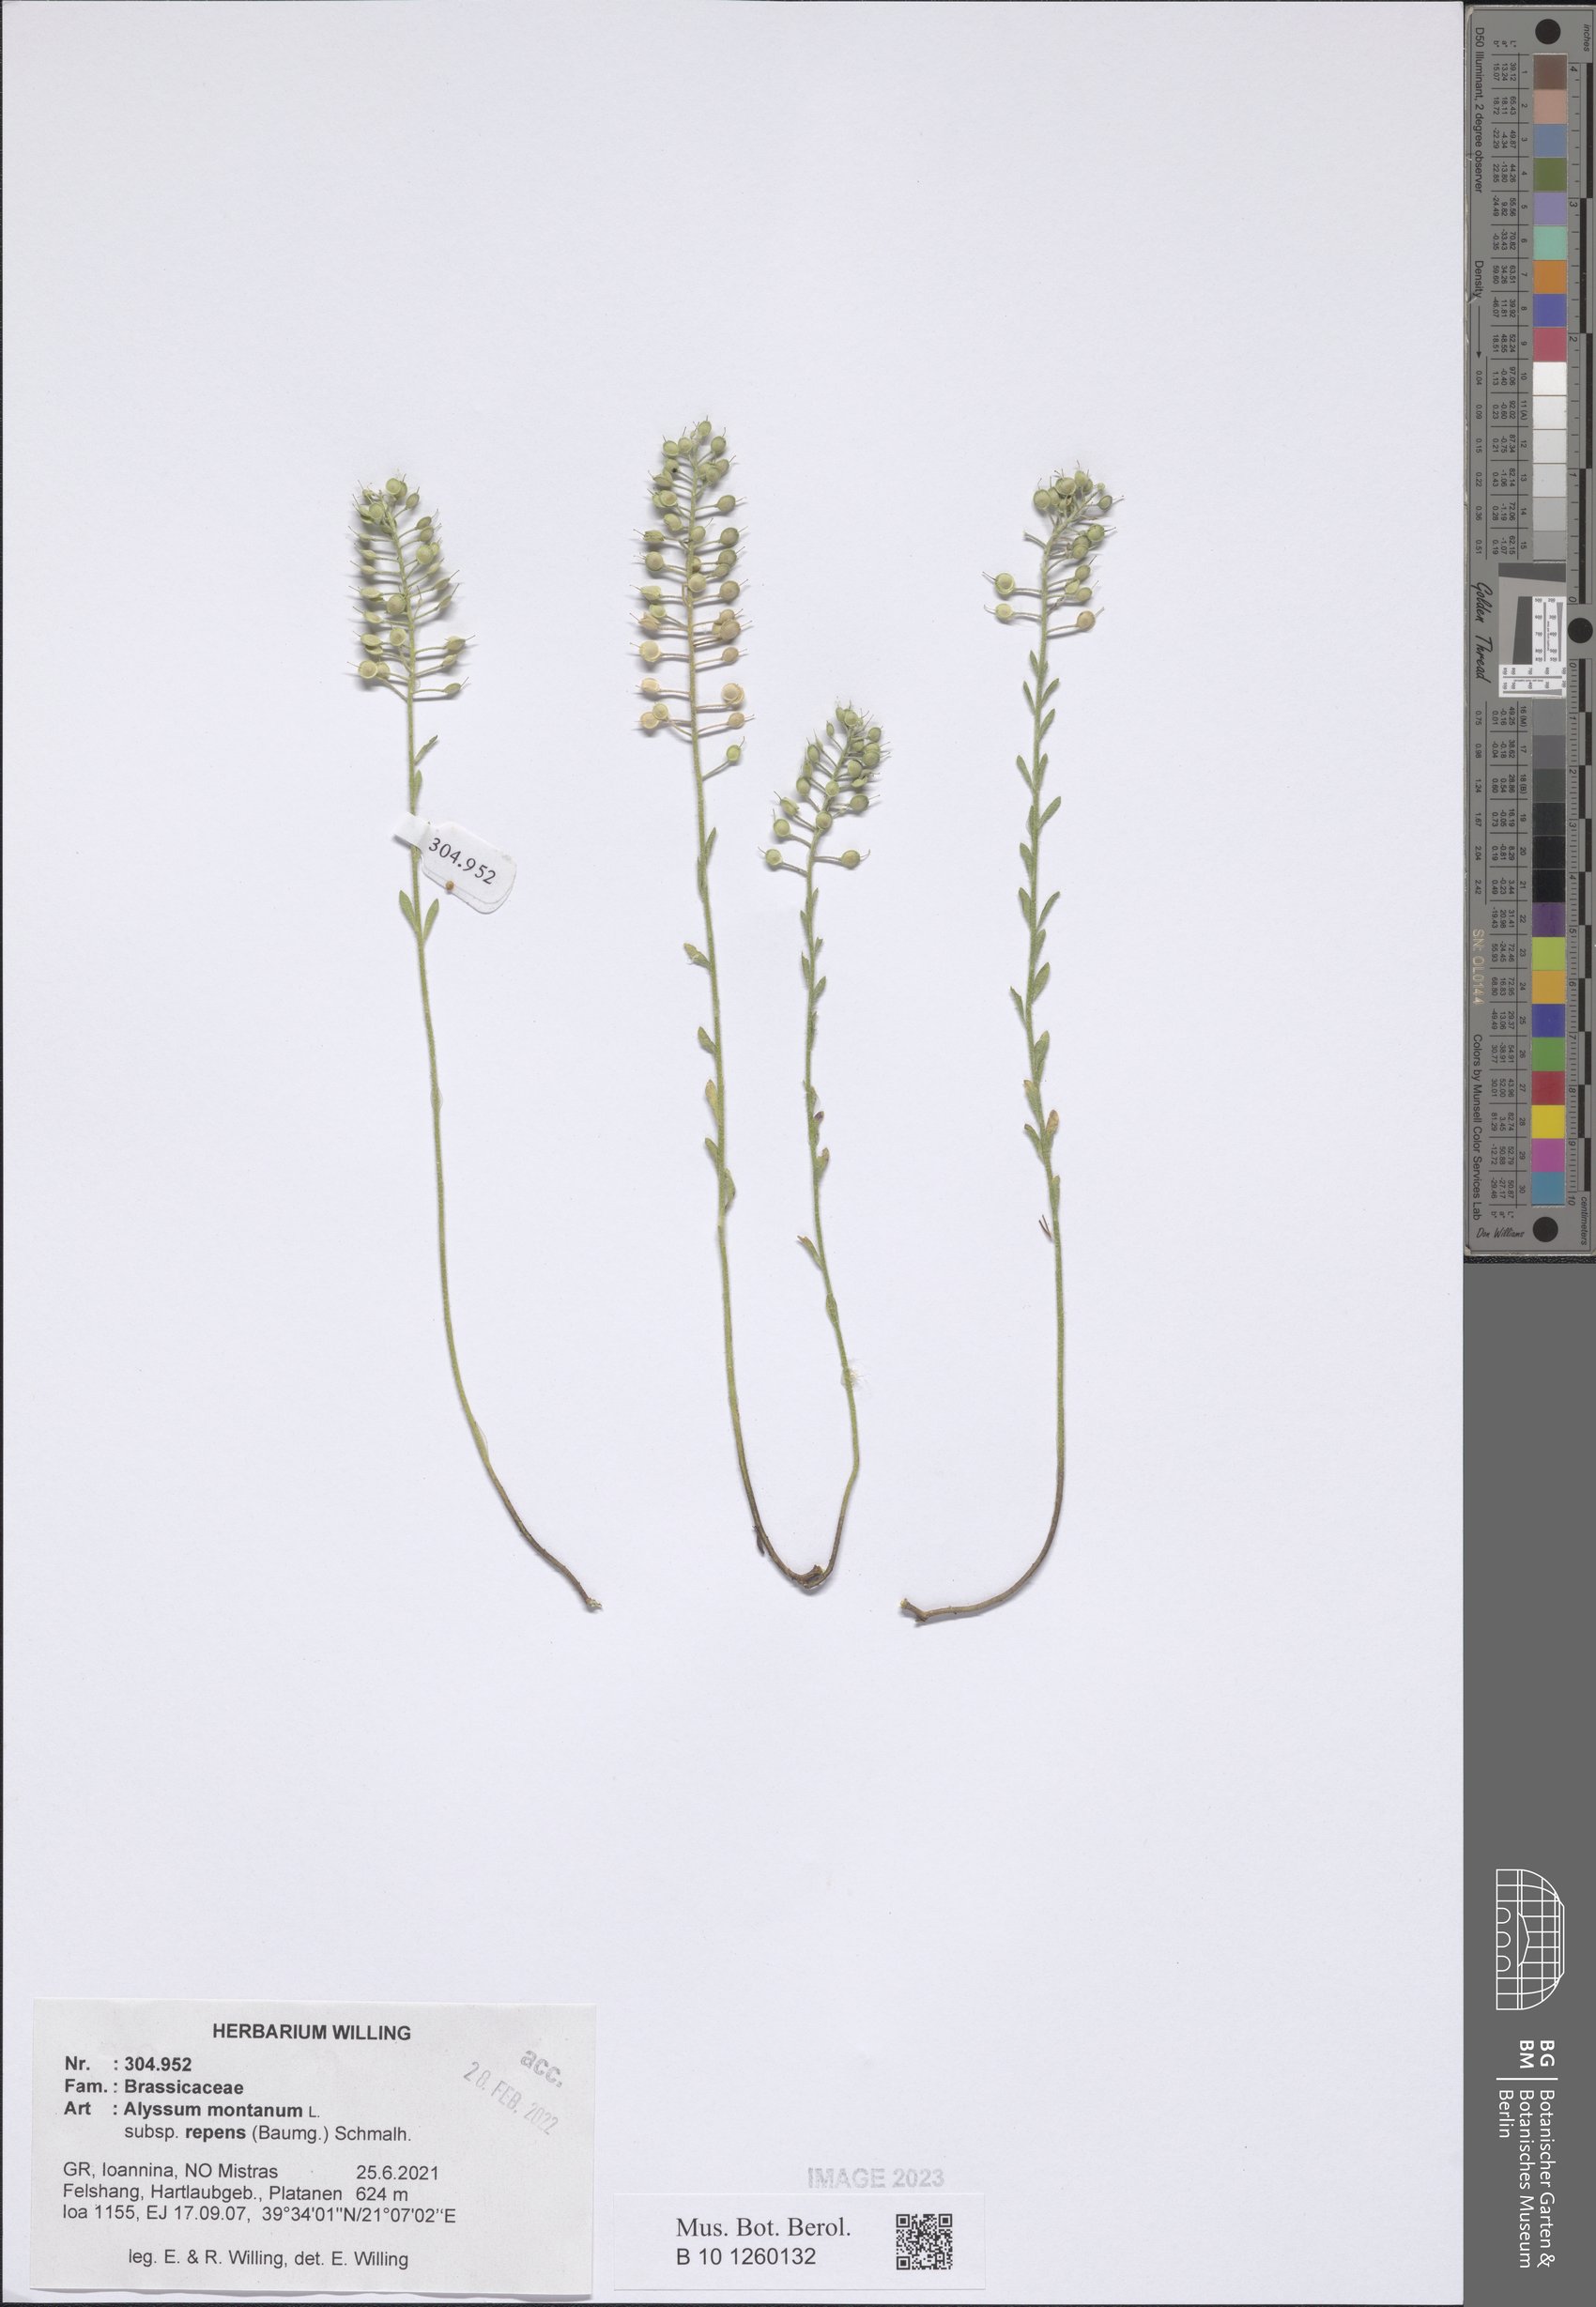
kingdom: Plantae
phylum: Tracheophyta
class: Magnoliopsida
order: Brassicales
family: Brassicaceae
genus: Alyssum
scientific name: Alyssum trichostachyum
